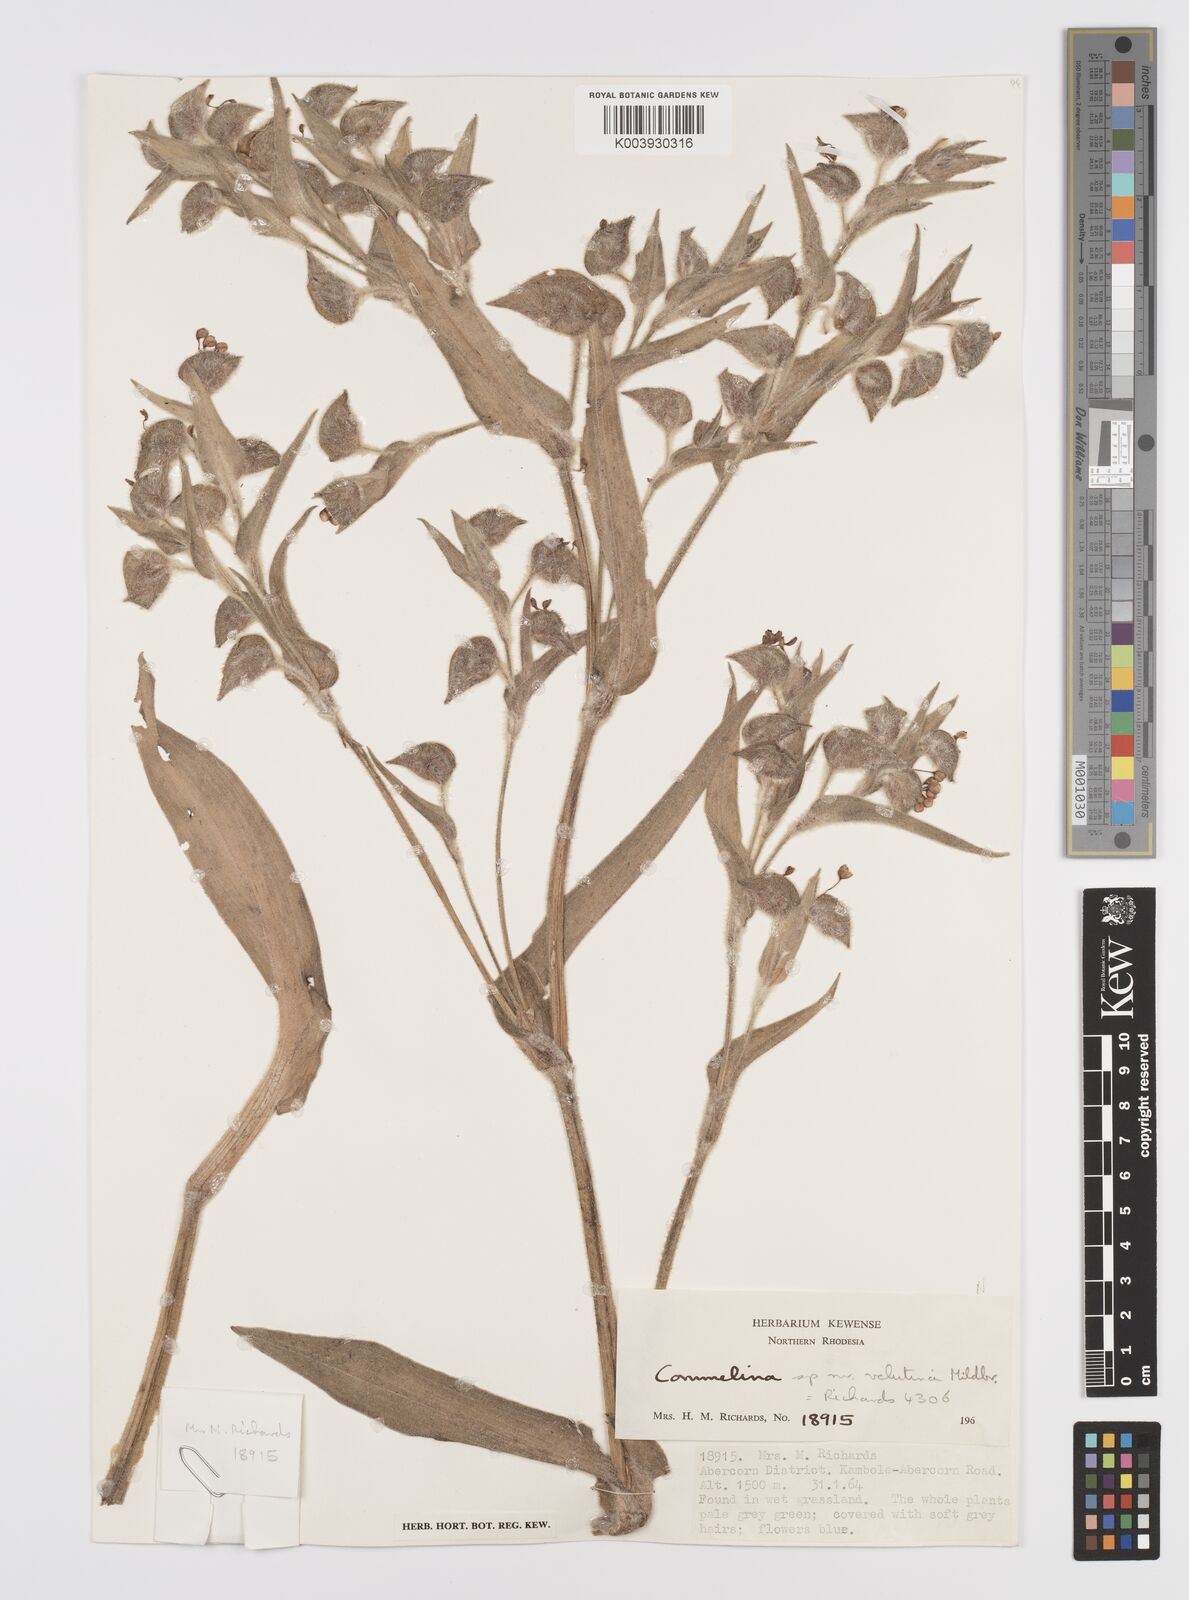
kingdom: Plantae
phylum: Tracheophyta
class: Liliopsida
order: Commelinales
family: Commelinaceae
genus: Commelina
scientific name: Commelina cecilae
